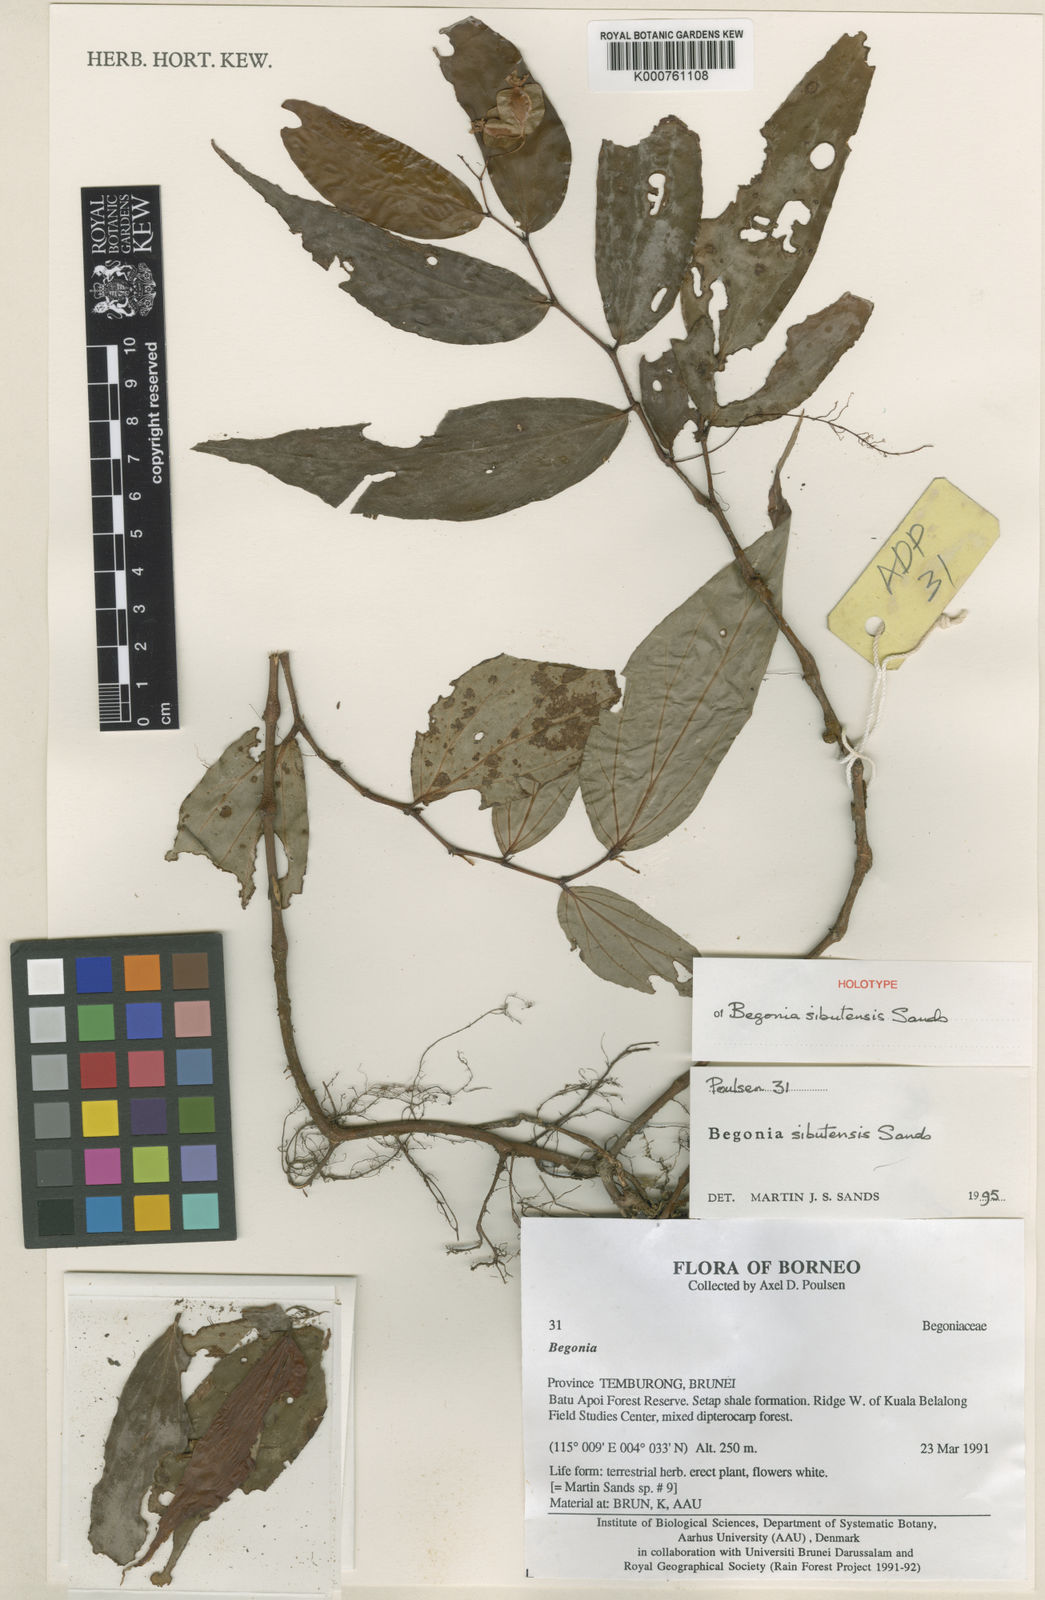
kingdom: Plantae
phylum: Tracheophyta
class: Magnoliopsida
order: Cucurbitales
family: Begoniaceae
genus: Begonia
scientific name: Begonia sibutensis
